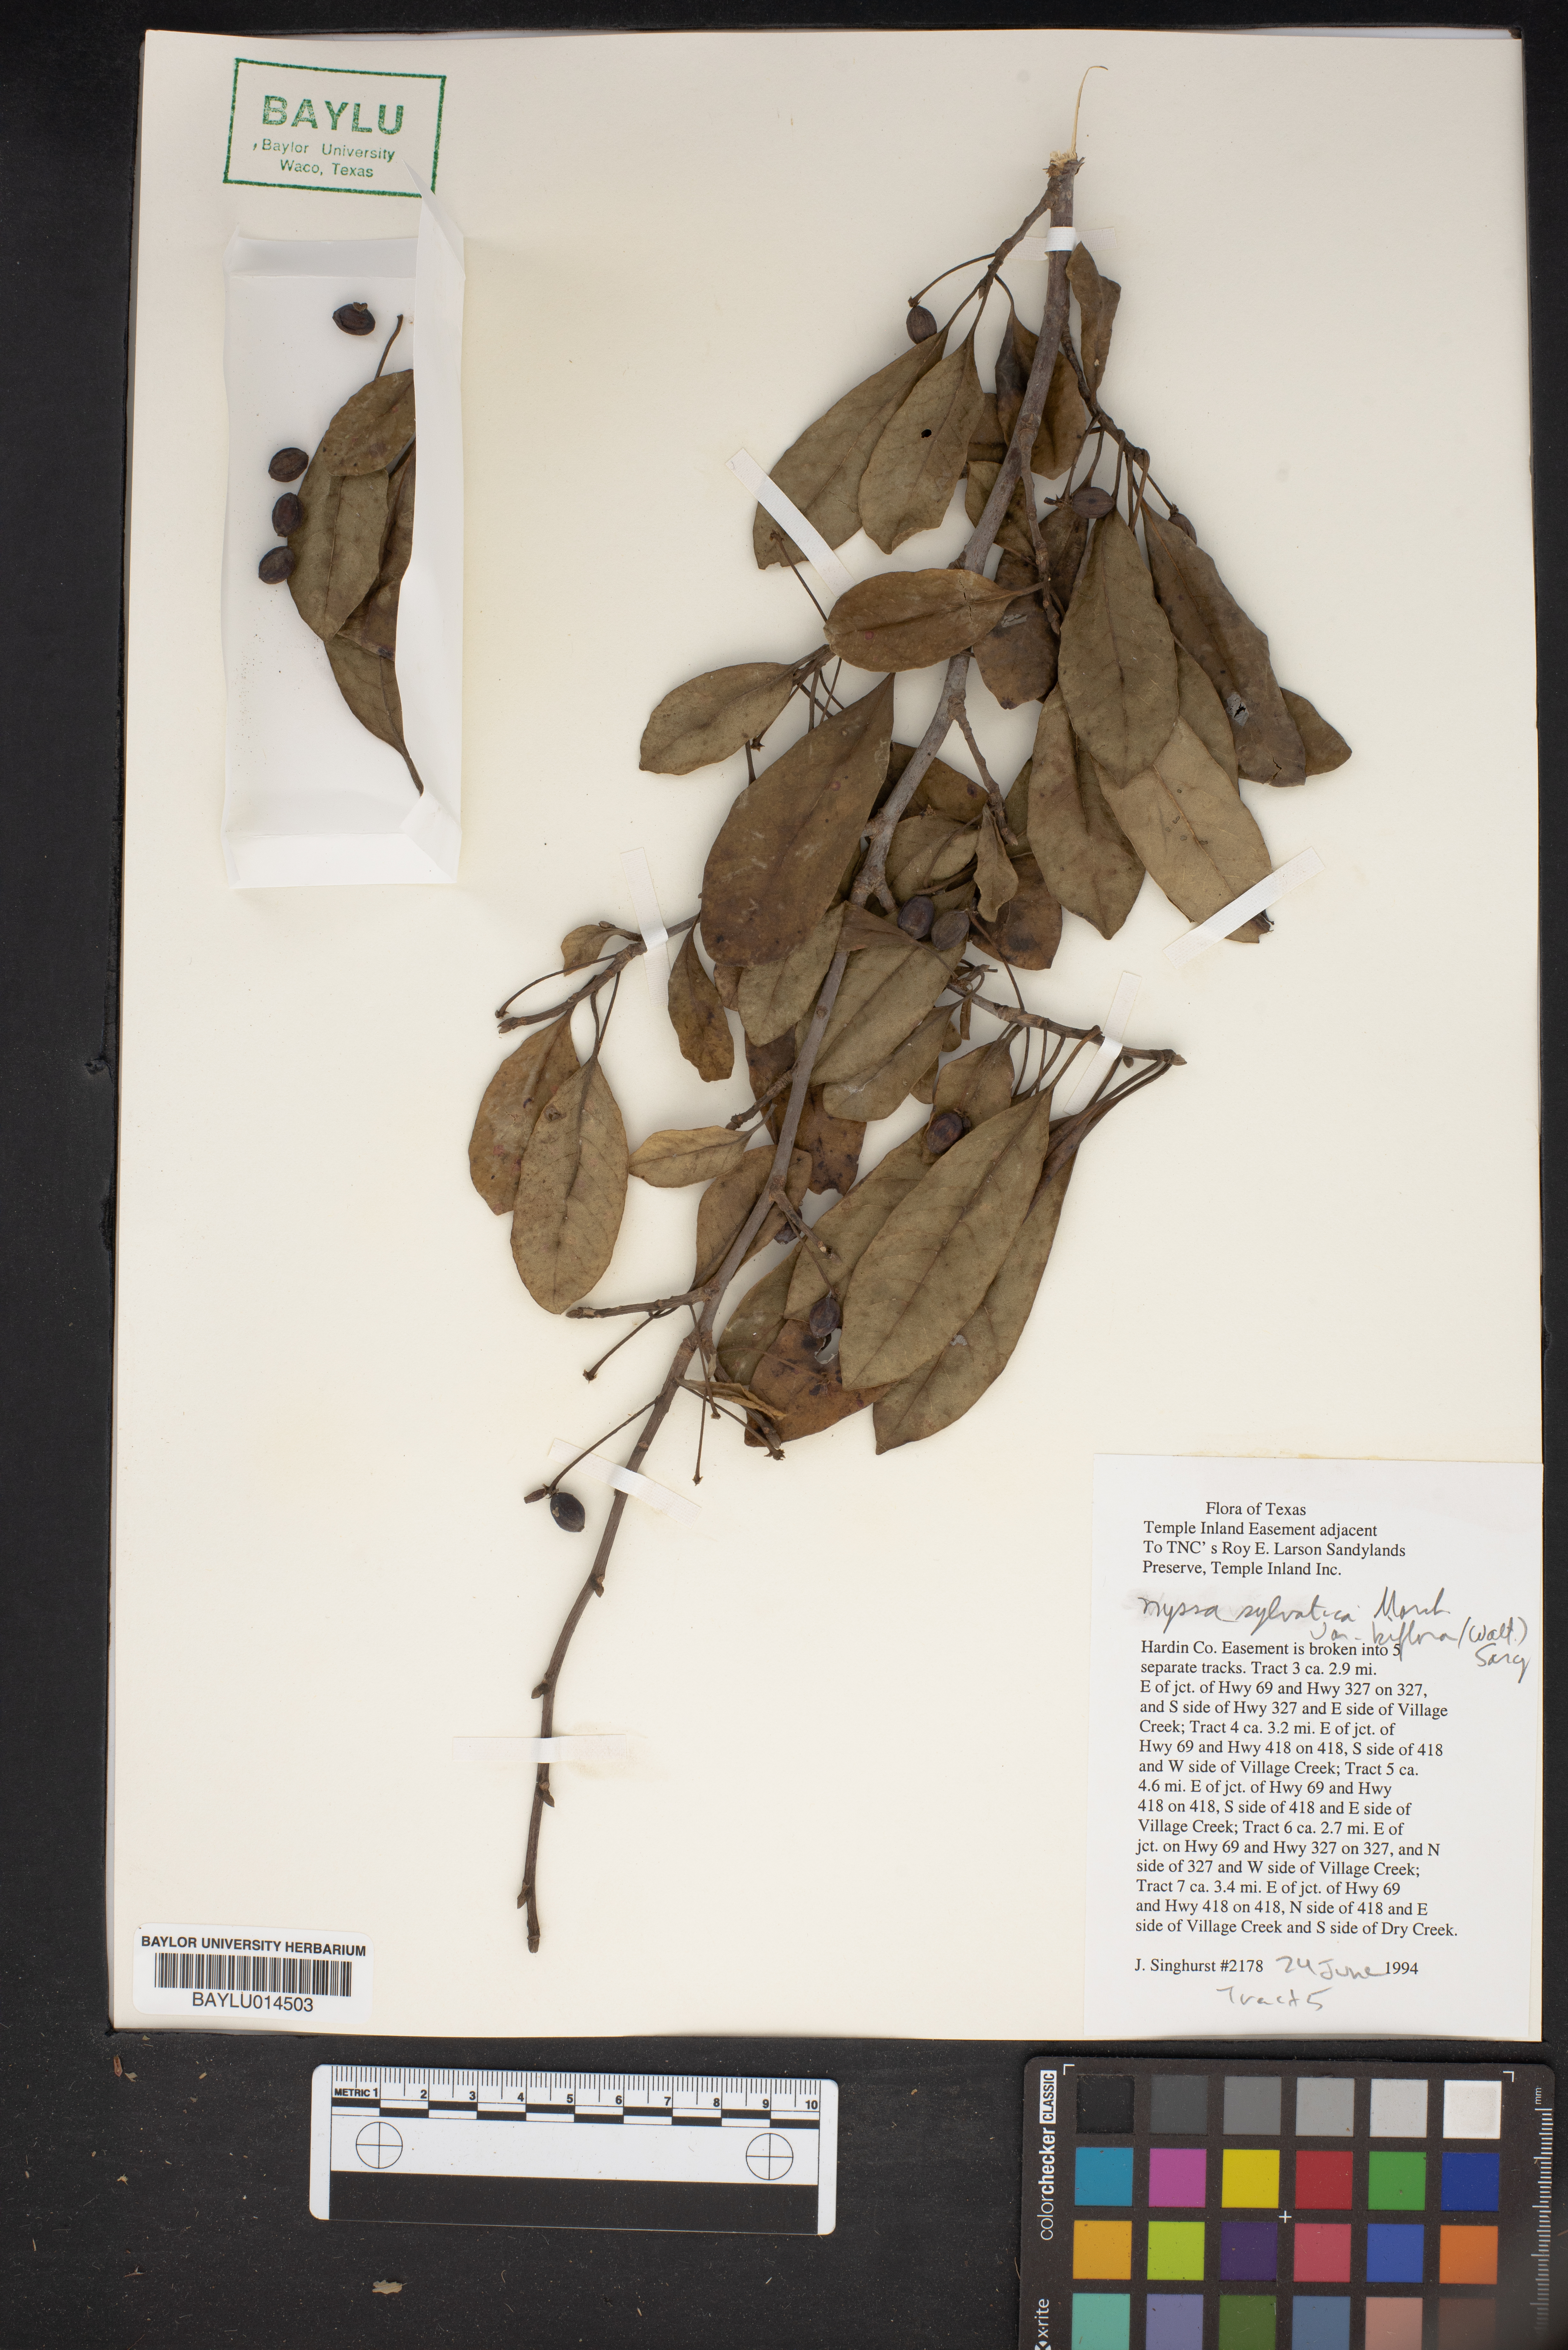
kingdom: Plantae
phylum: Tracheophyta
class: Magnoliopsida
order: Cornales
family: Nyssaceae
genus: Nyssa
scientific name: Nyssa sylvatica
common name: Black tupelo
